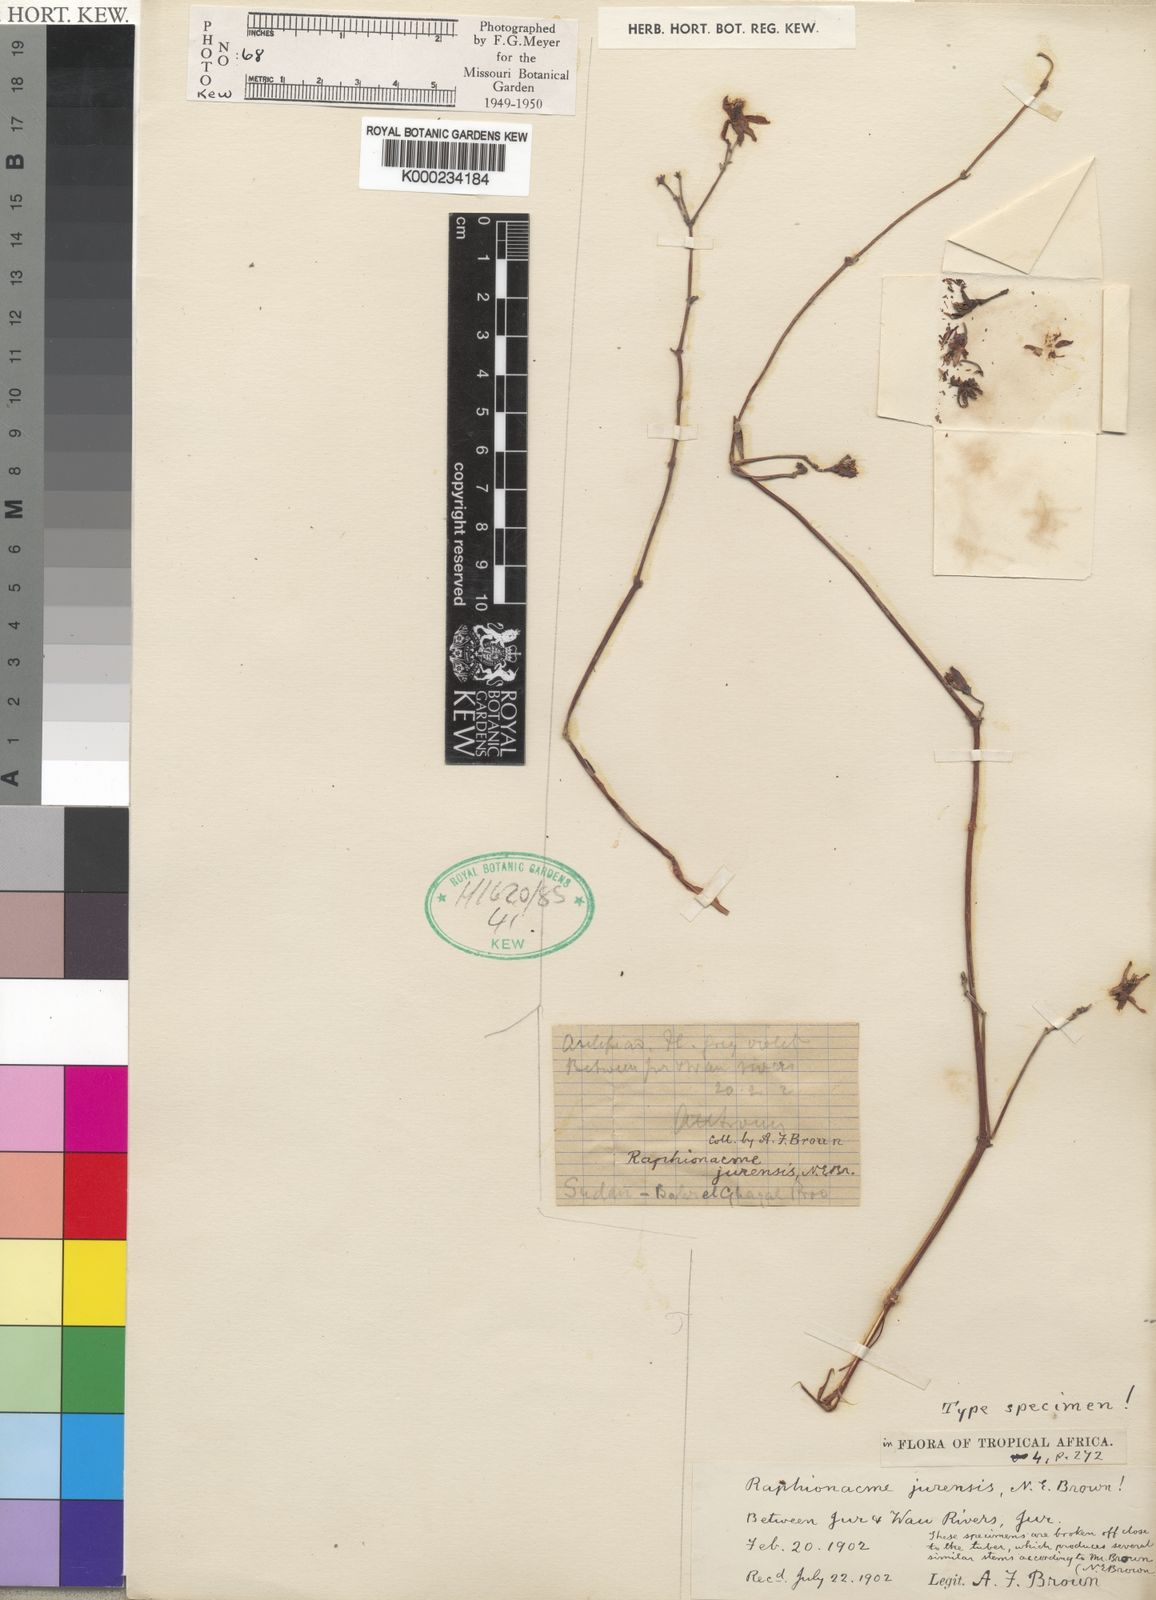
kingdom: Plantae
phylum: Tracheophyta
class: Magnoliopsida
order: Gentianales
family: Apocynaceae
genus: Raphionacme
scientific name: Raphionacme splendens
